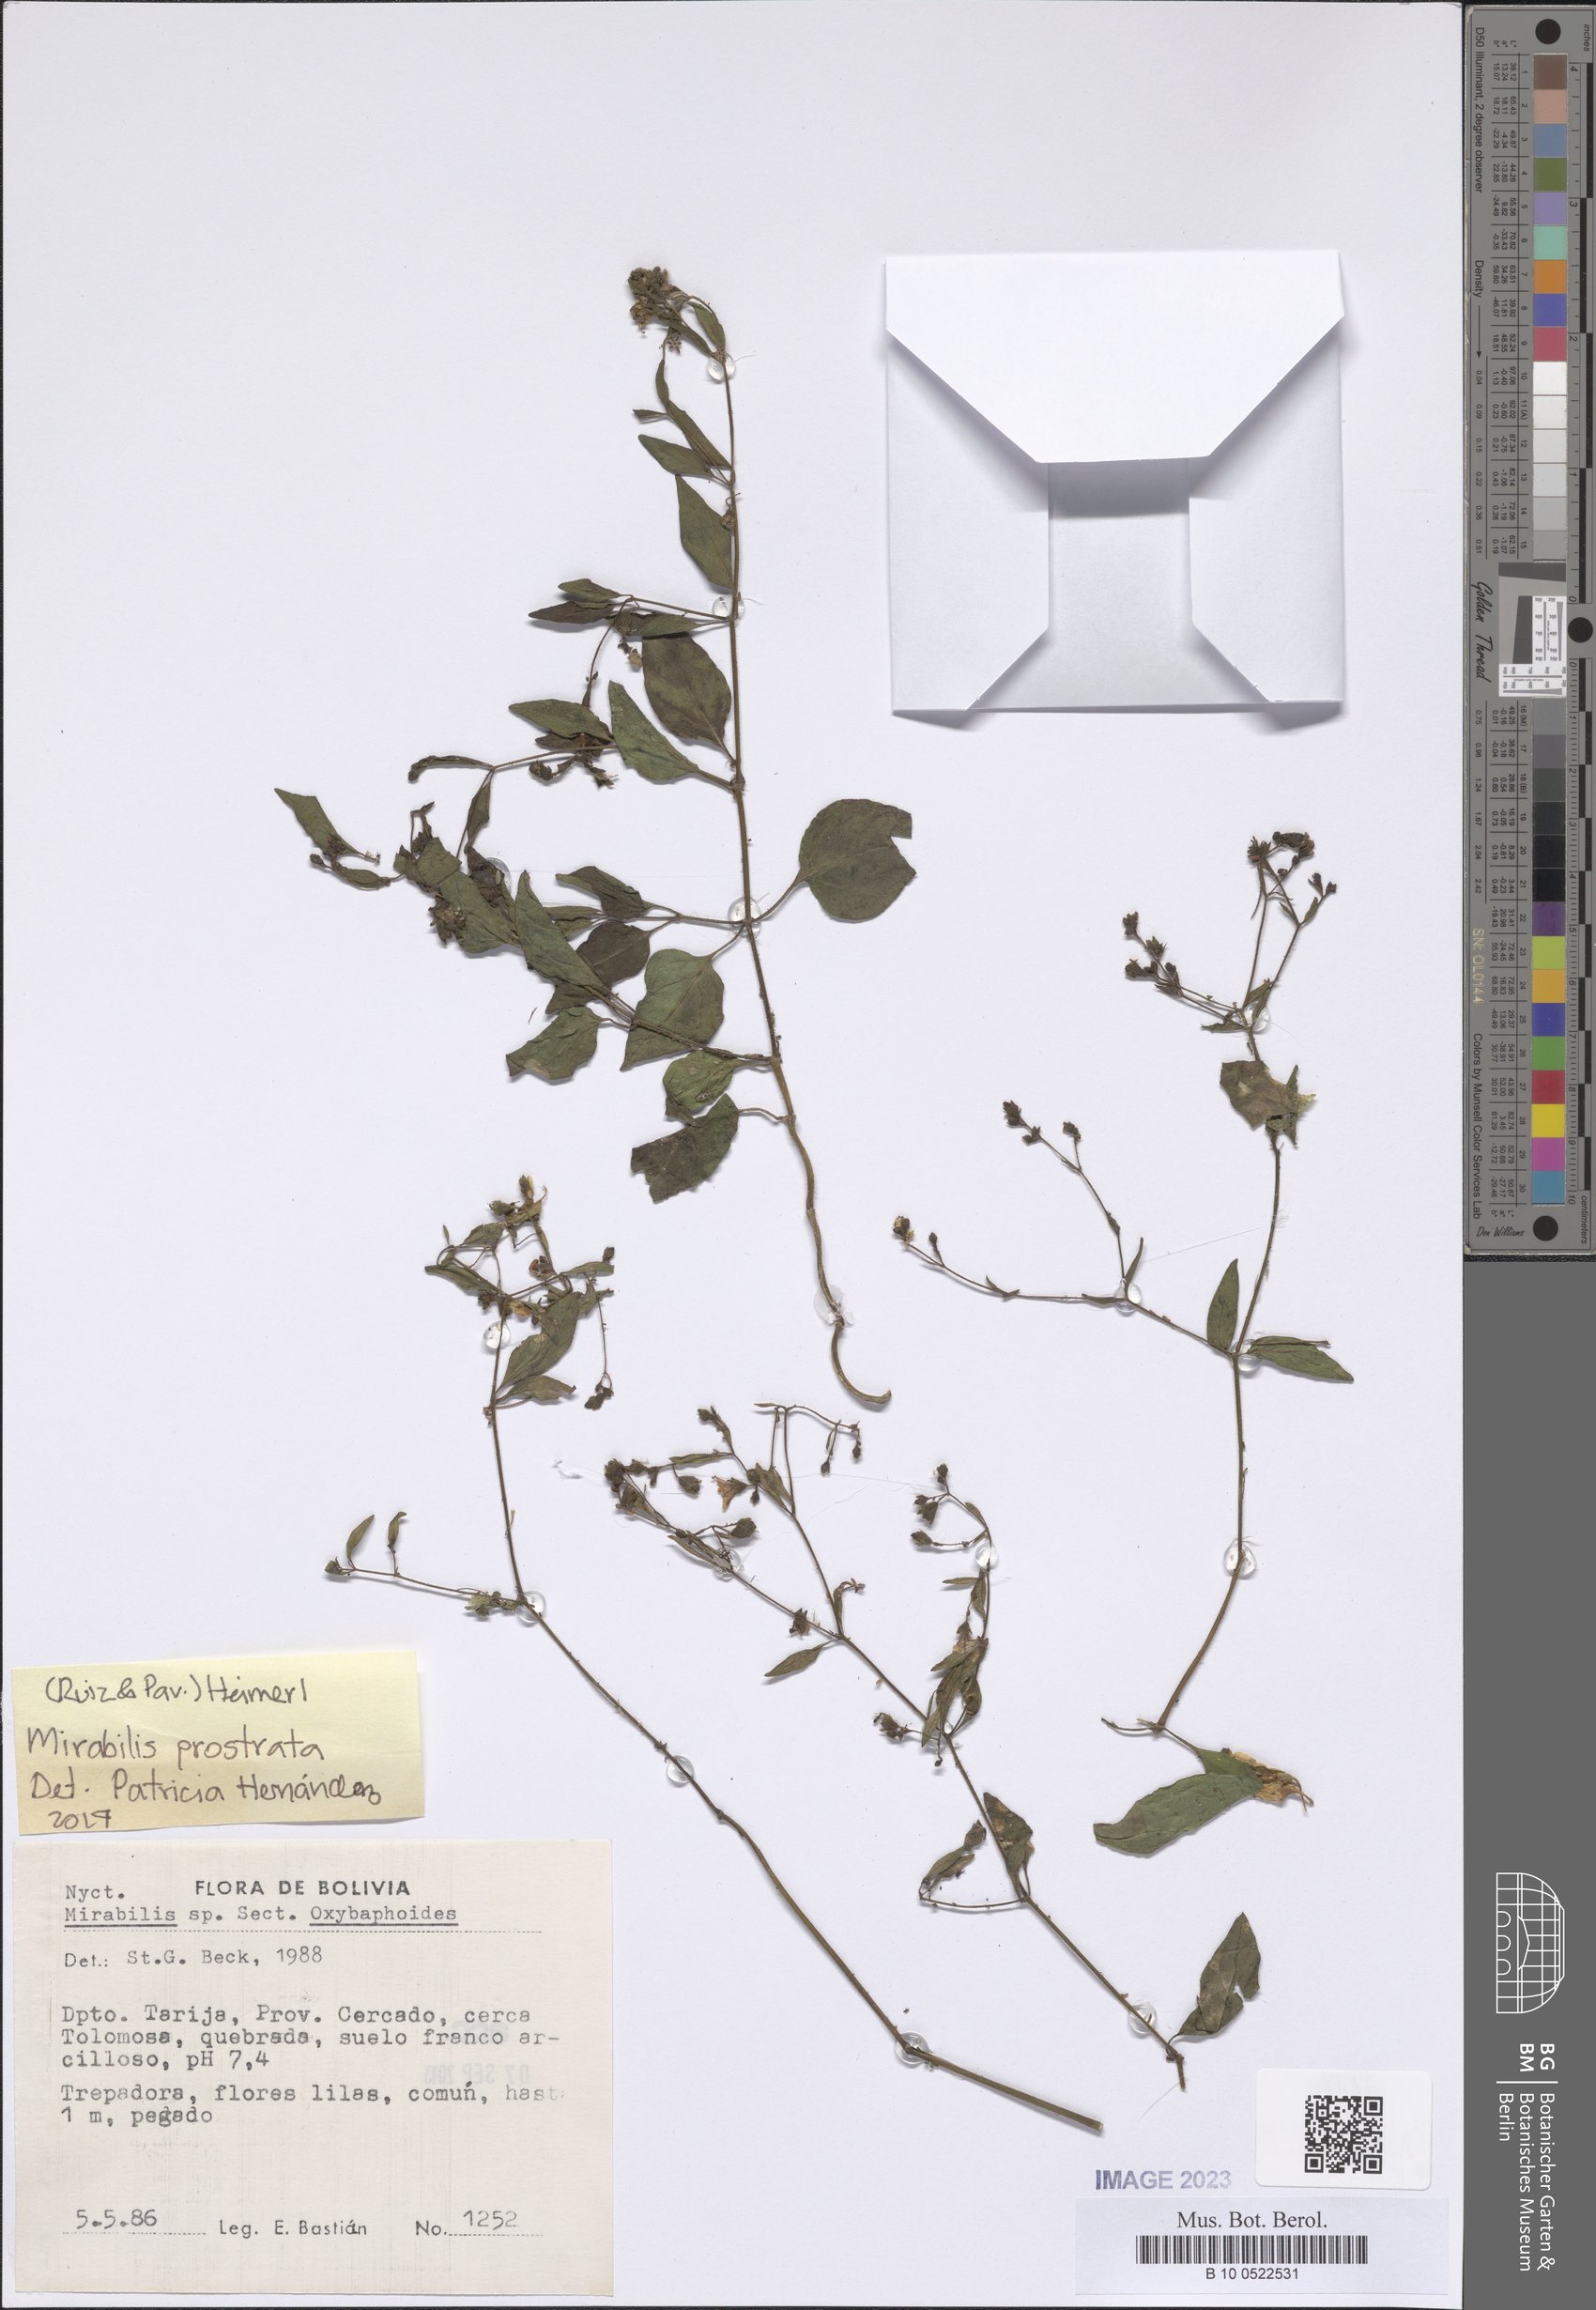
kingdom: Plantae
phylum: Tracheophyta
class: Magnoliopsida
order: Caryophyllales
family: Nyctaginaceae
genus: Mirabilis
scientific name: Mirabilis prostrata
